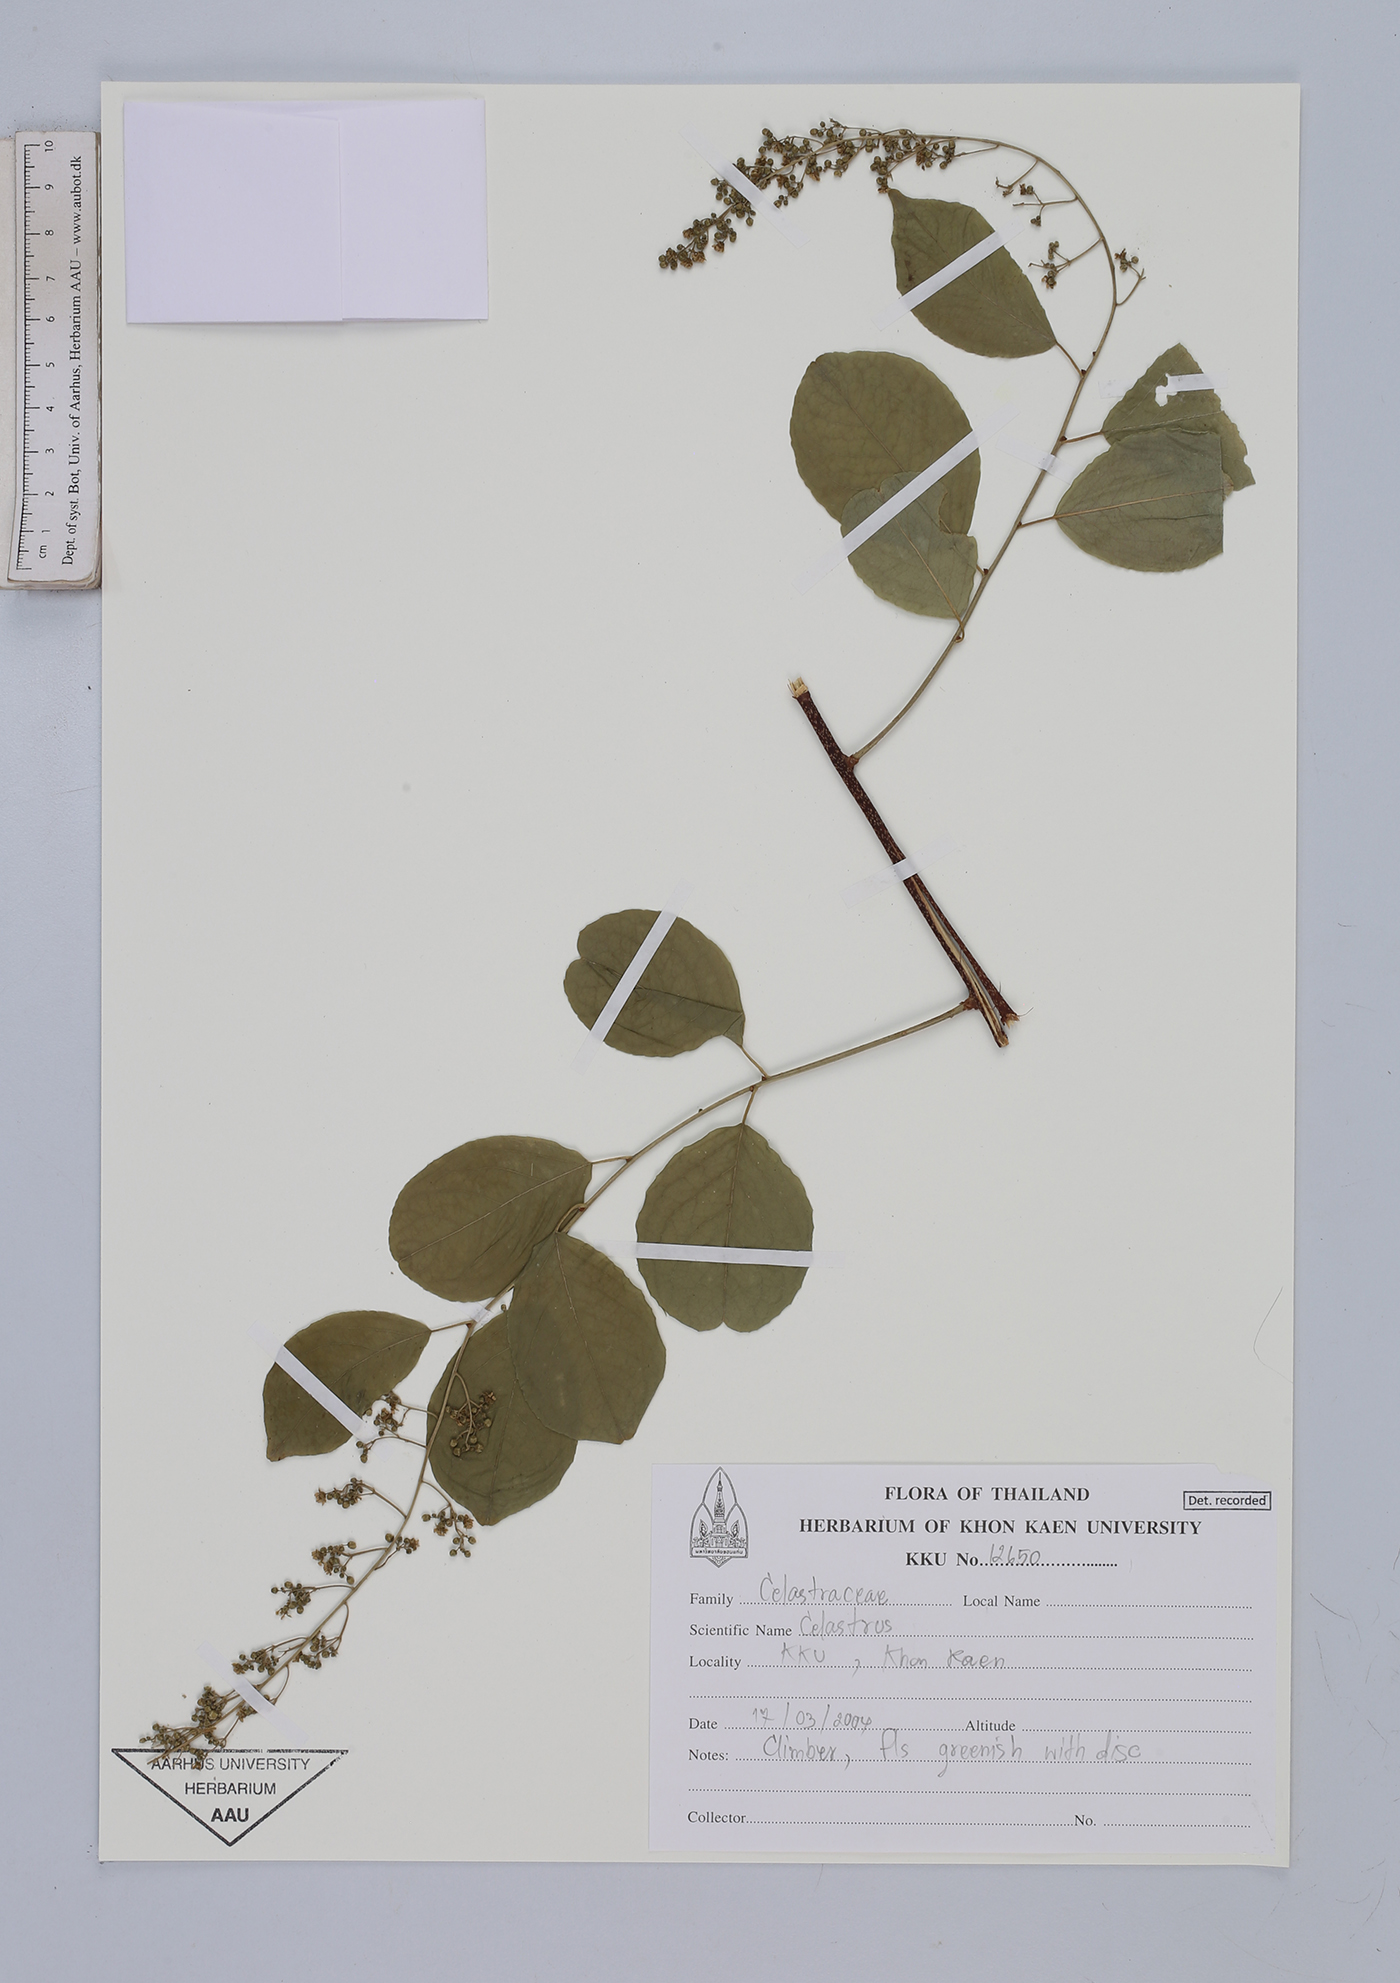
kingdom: Plantae
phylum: Tracheophyta
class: Magnoliopsida
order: Celastrales
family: Celastraceae
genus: Celastrus
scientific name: Celastrus
